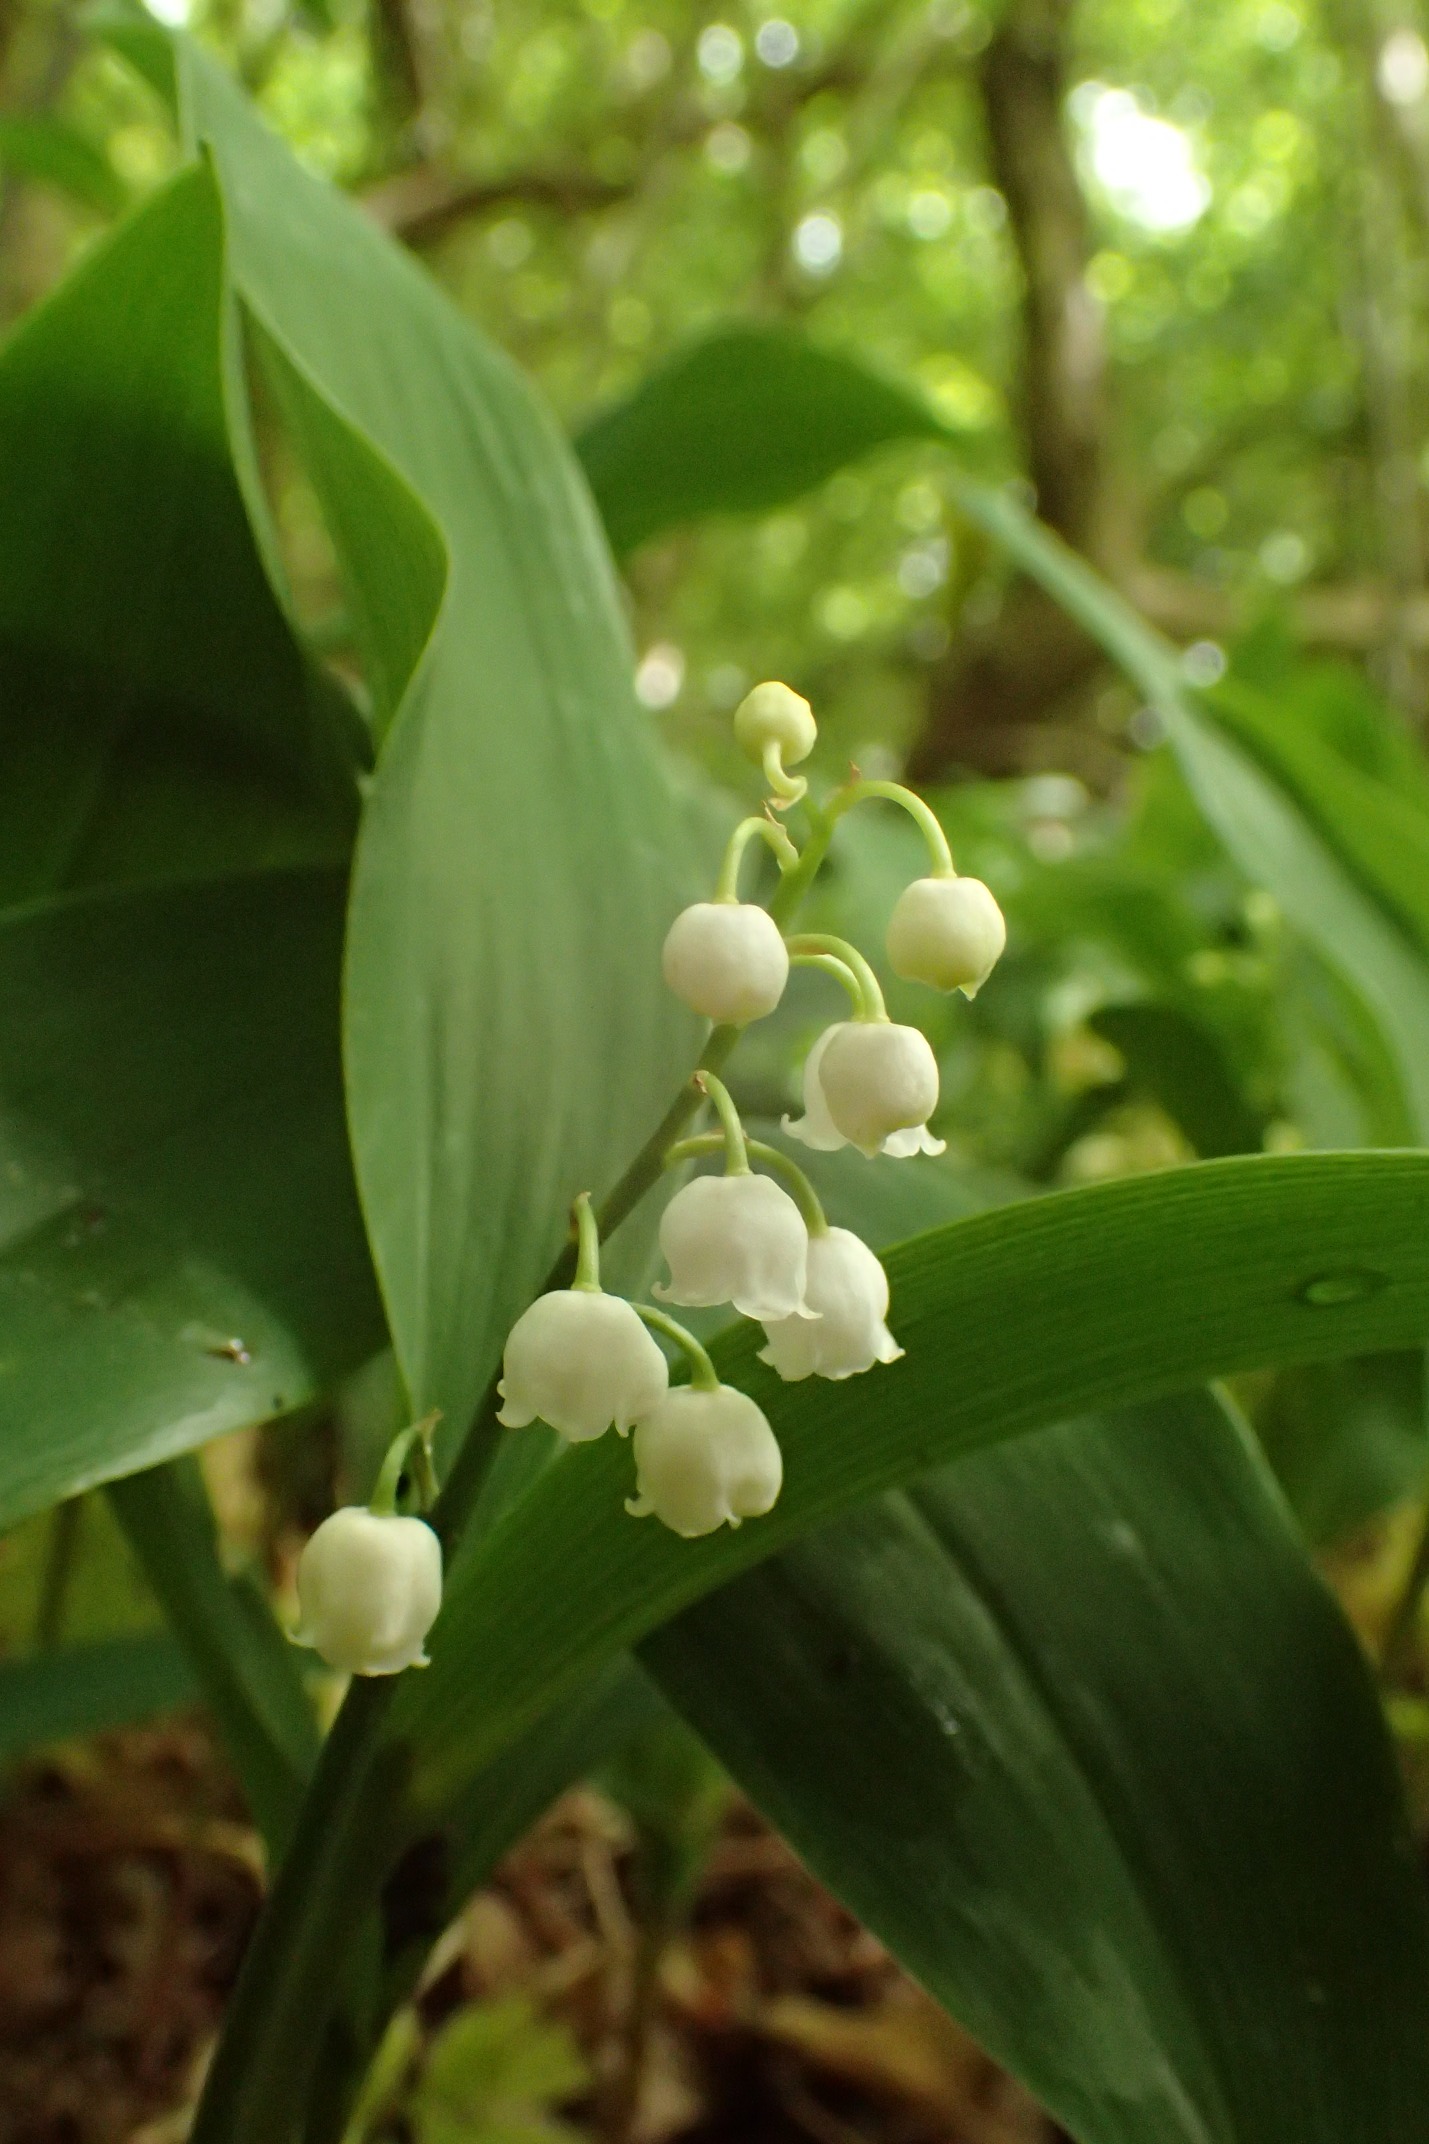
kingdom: Plantae
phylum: Tracheophyta
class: Liliopsida
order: Asparagales
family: Asparagaceae
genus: Convallaria
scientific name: Convallaria majalis
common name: Liljekonval
